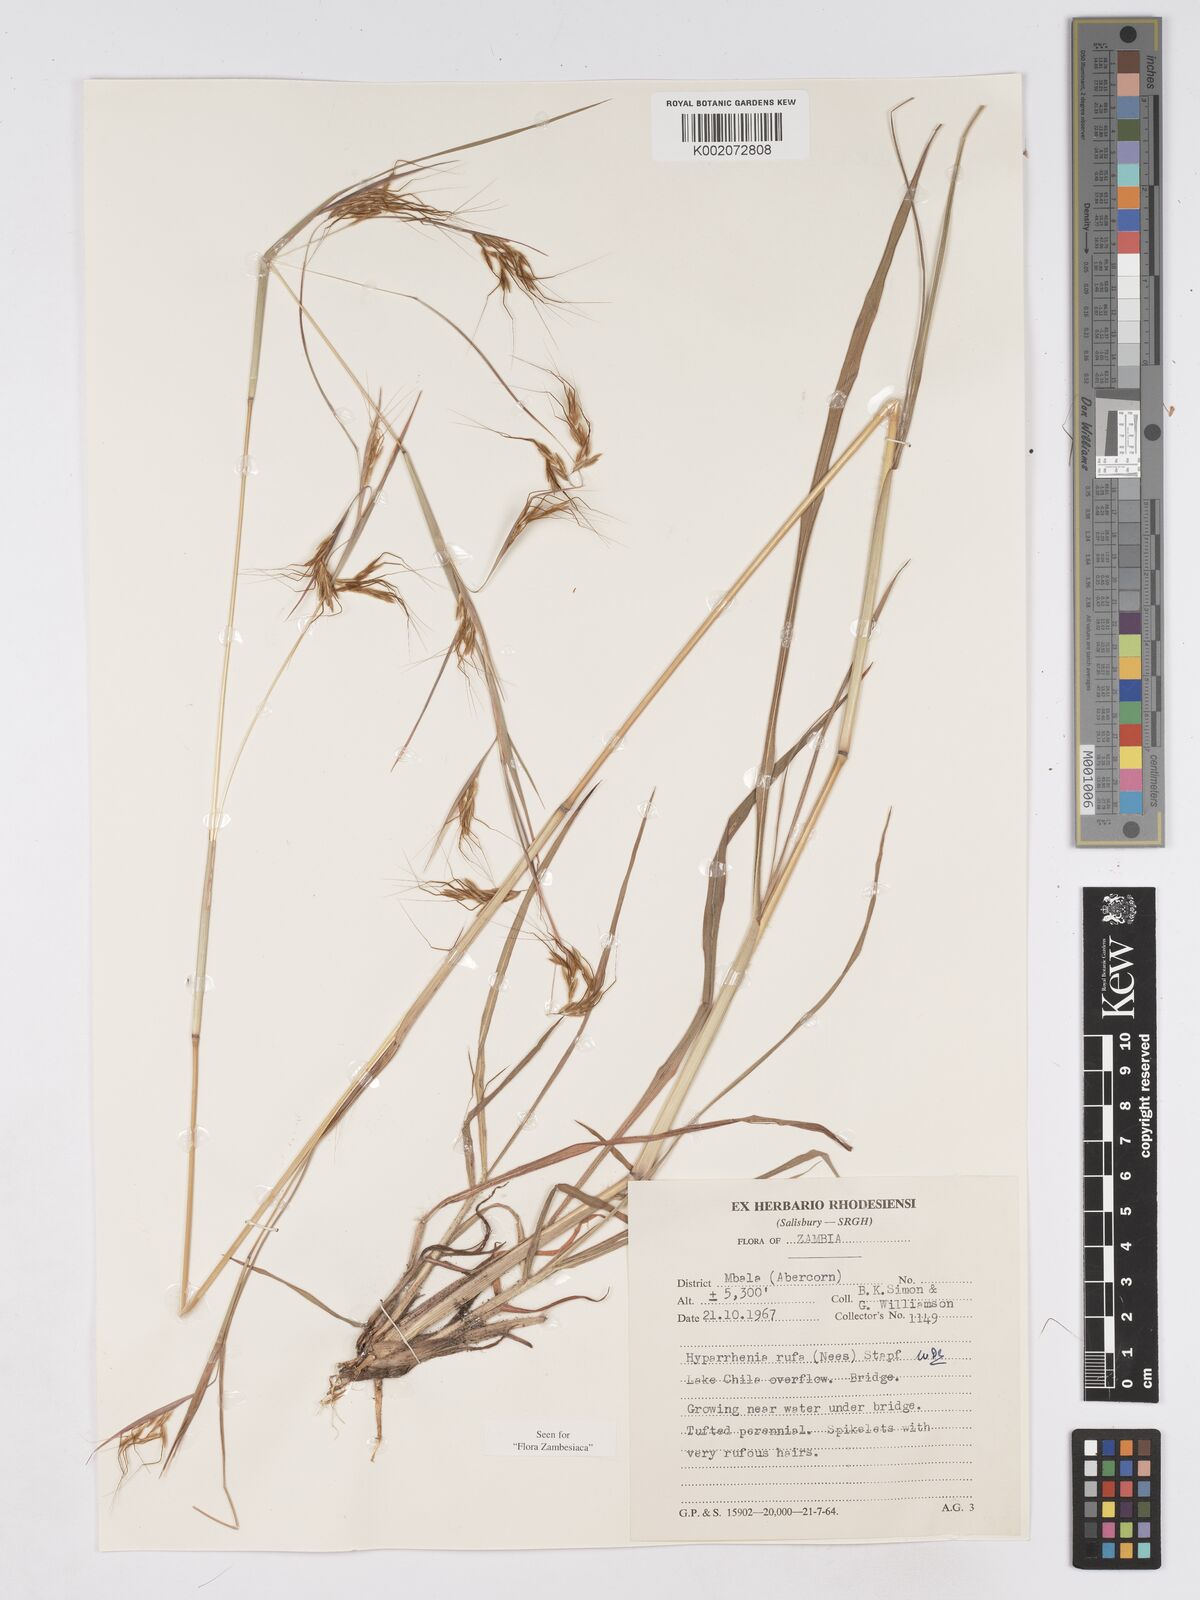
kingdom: Plantae
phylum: Tracheophyta
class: Liliopsida
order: Poales
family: Poaceae
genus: Hyparrhenia
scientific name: Hyparrhenia rufa
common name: Jaraguagrass
